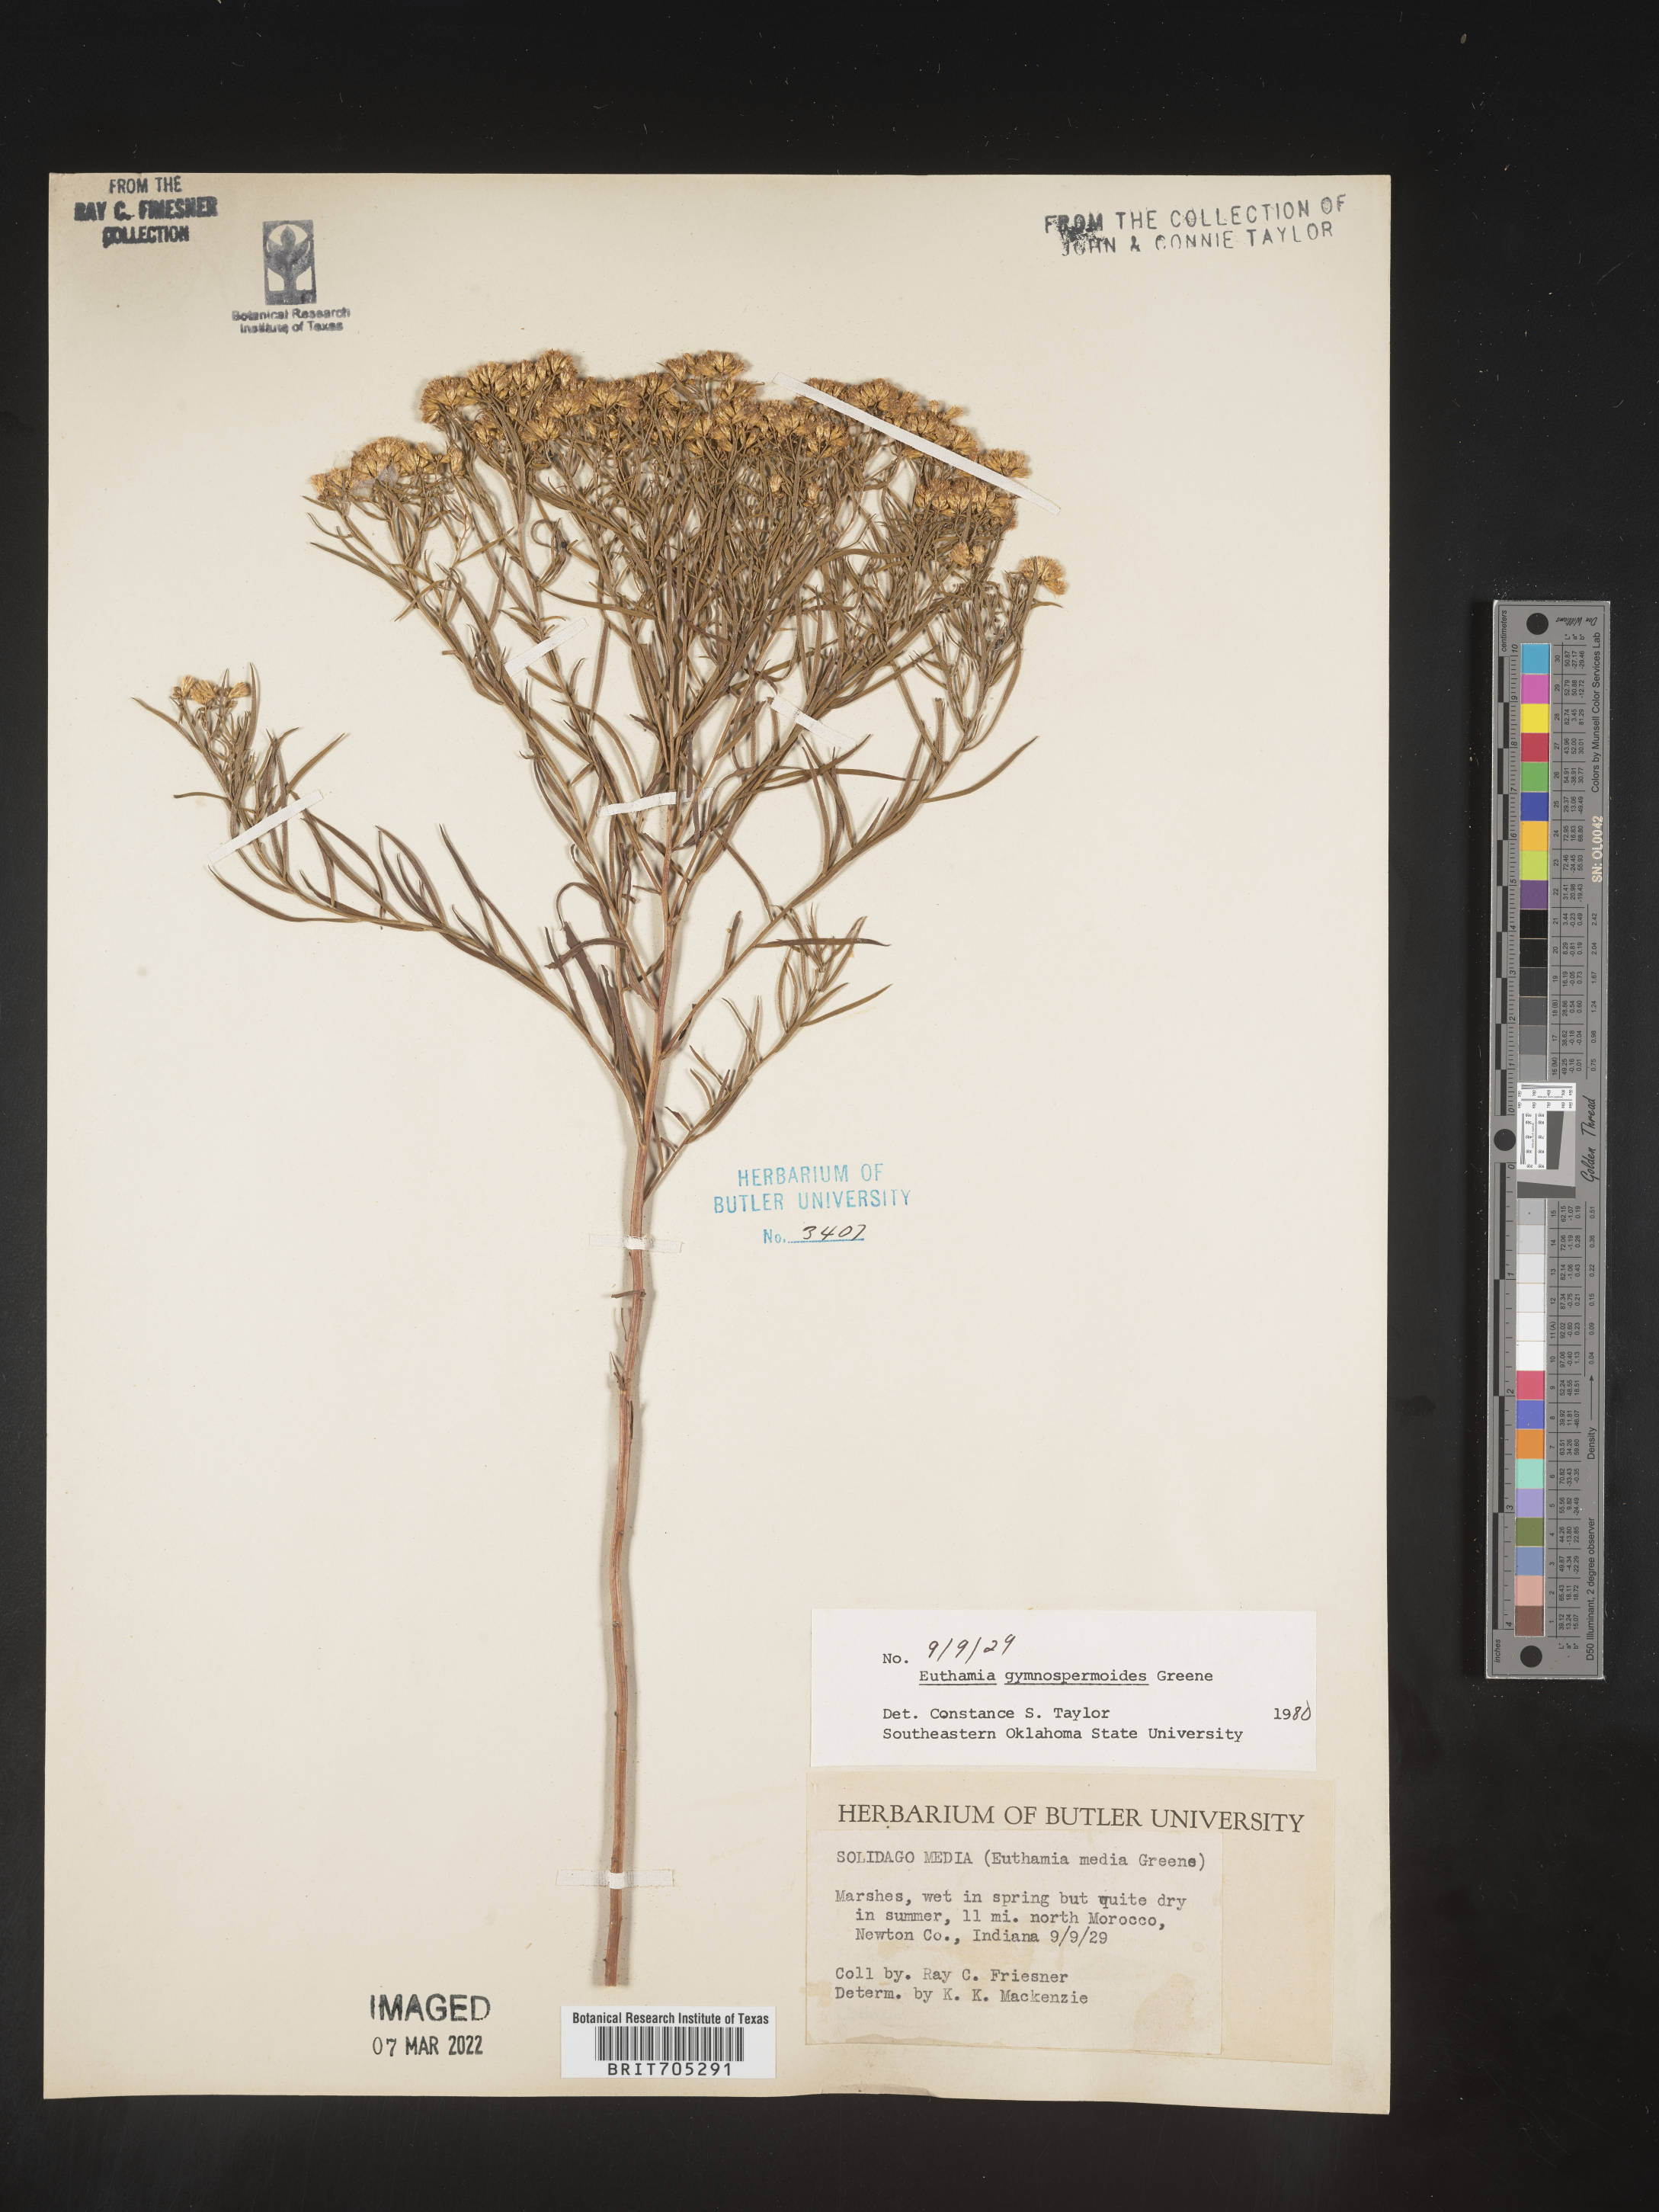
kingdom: Plantae
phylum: Tracheophyta
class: Magnoliopsida
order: Asterales
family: Asteraceae
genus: Euthamia
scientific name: Euthamia gymnospermoides
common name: Great plains goldentop
